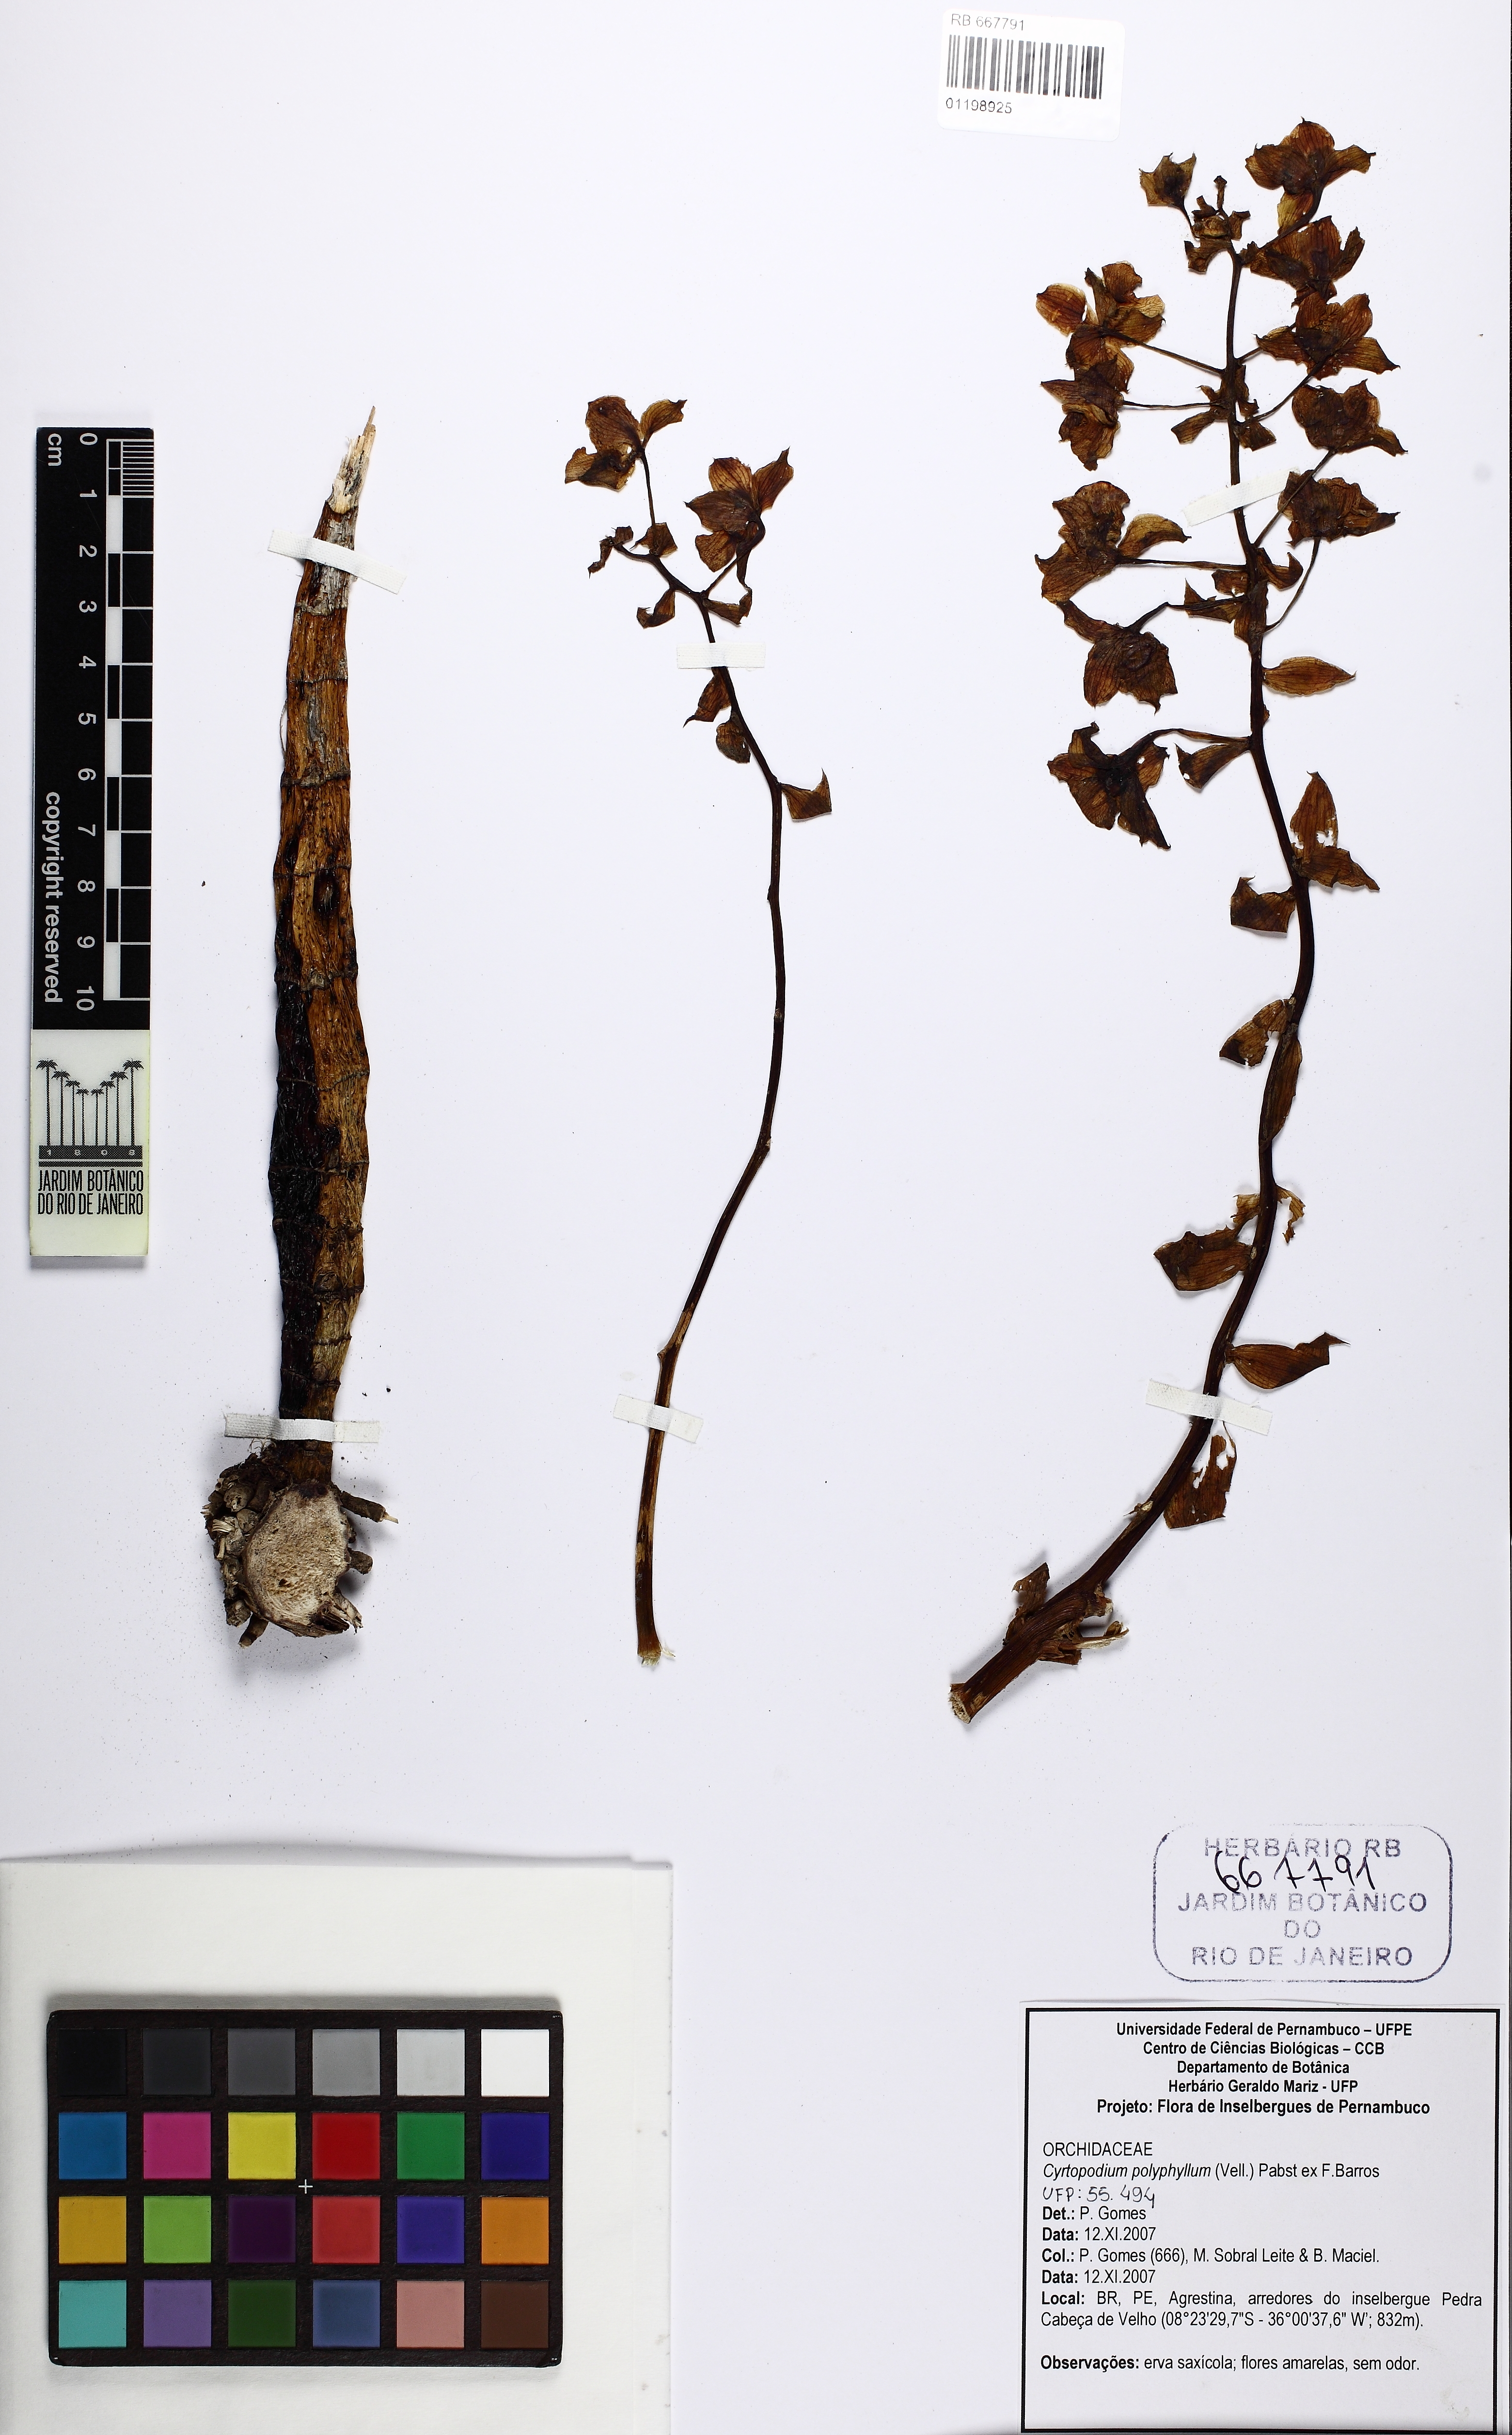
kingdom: Plantae
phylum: Tracheophyta
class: Liliopsida
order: Asparagales
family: Orchidaceae
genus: Cyrtopodium
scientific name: Cyrtopodium flavum
